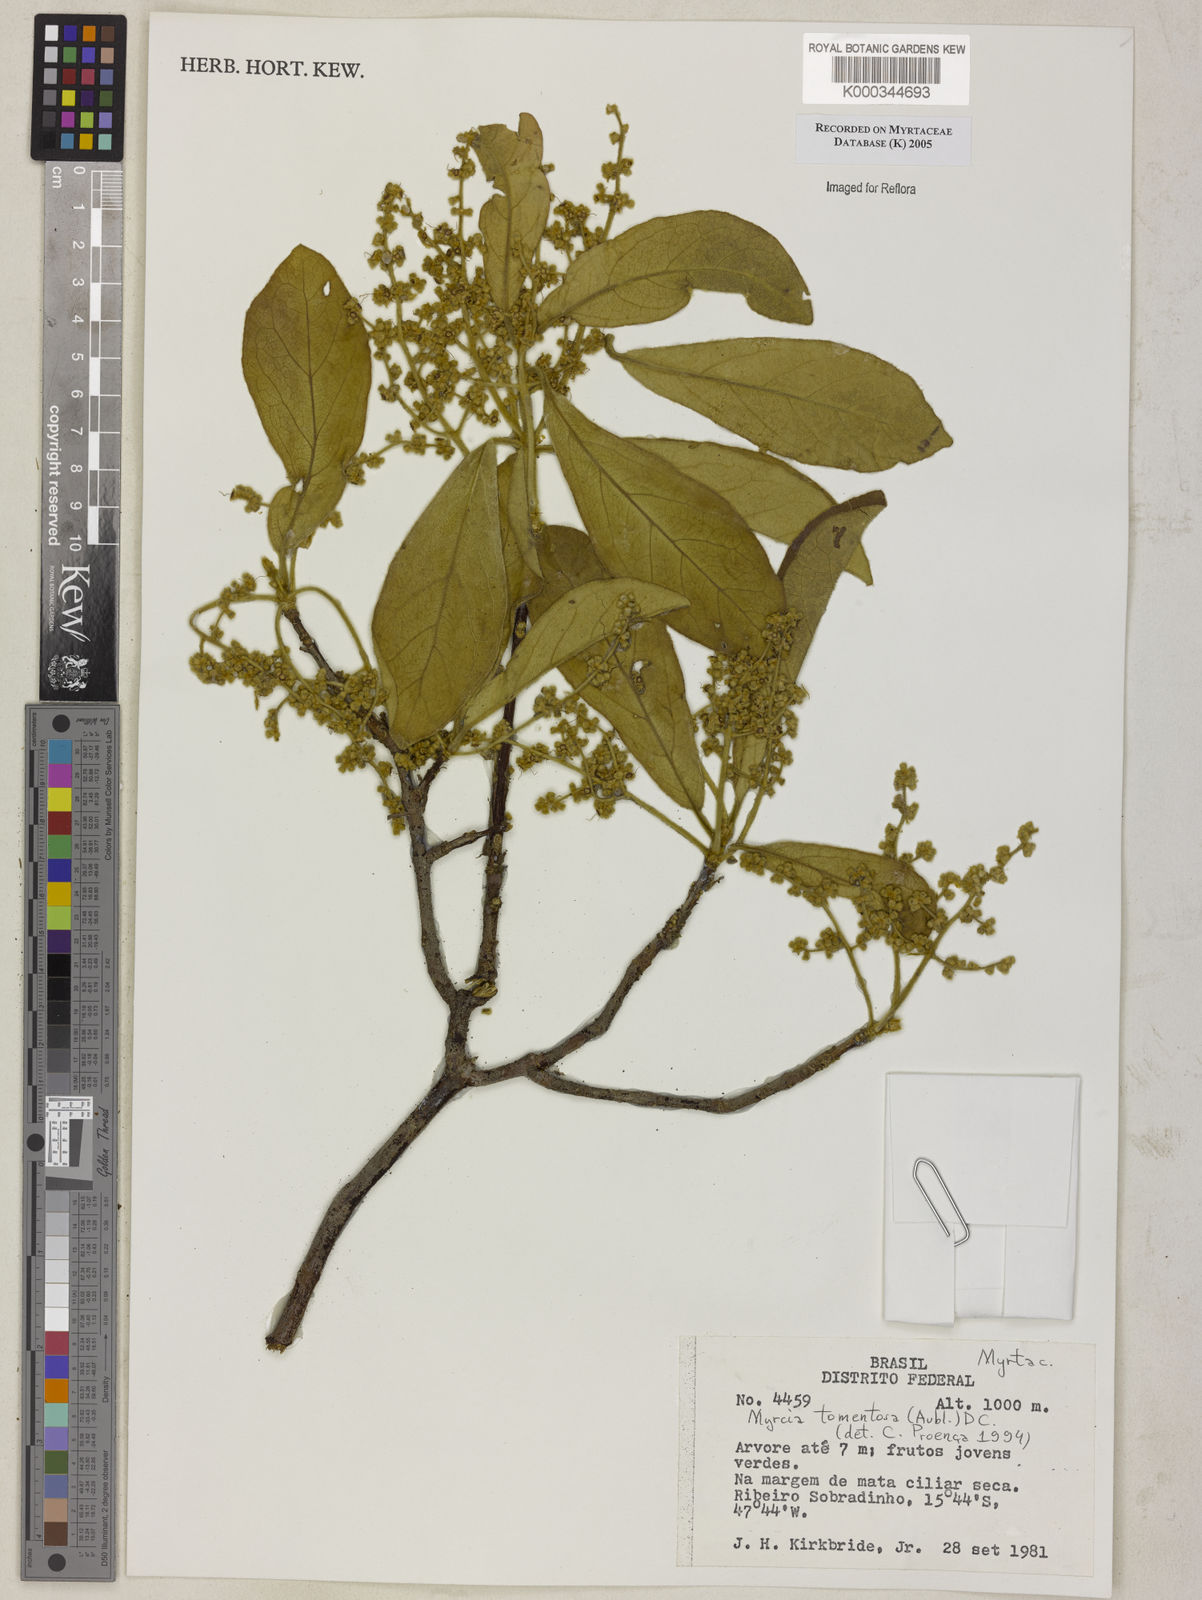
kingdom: Plantae
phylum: Tracheophyta
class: Magnoliopsida
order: Myrtales
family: Myrtaceae
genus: Myrcia
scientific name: Myrcia tomentosa
